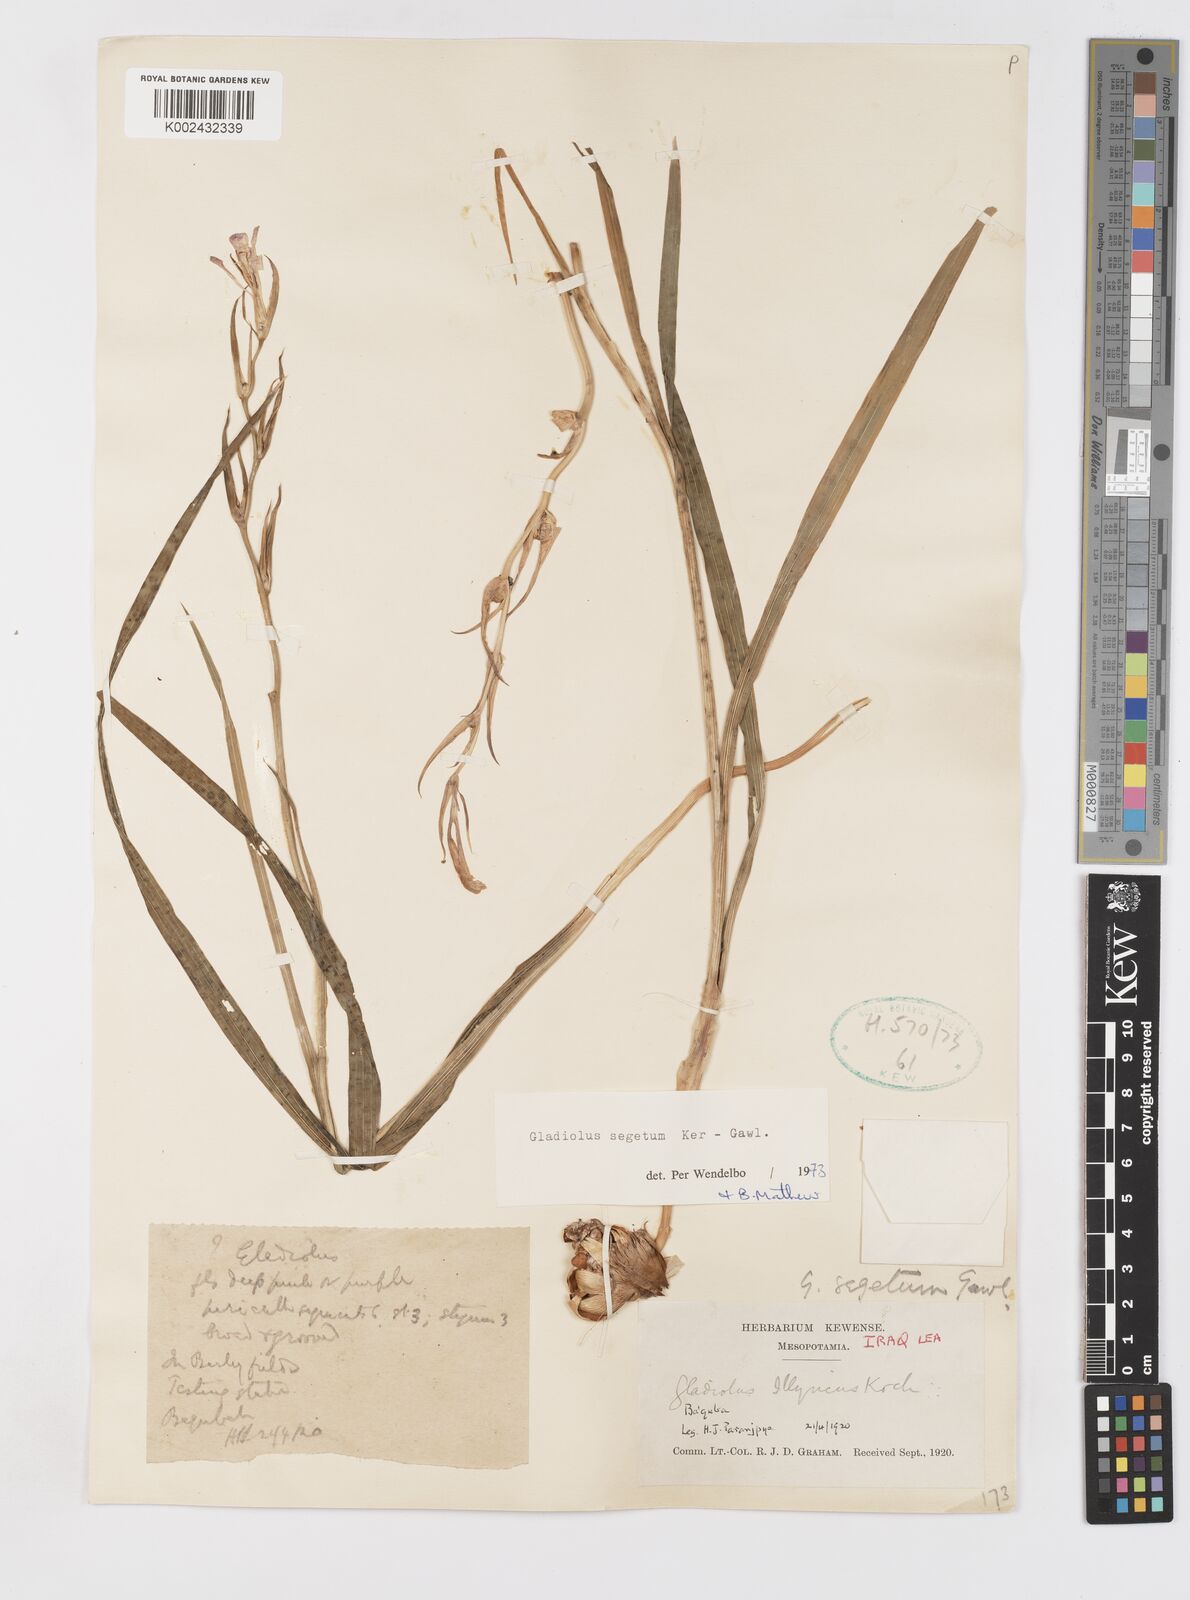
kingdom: Plantae
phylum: Tracheophyta
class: Liliopsida
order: Asparagales
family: Iridaceae
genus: Gladiolus
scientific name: Gladiolus italicus
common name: Field gladiolus
